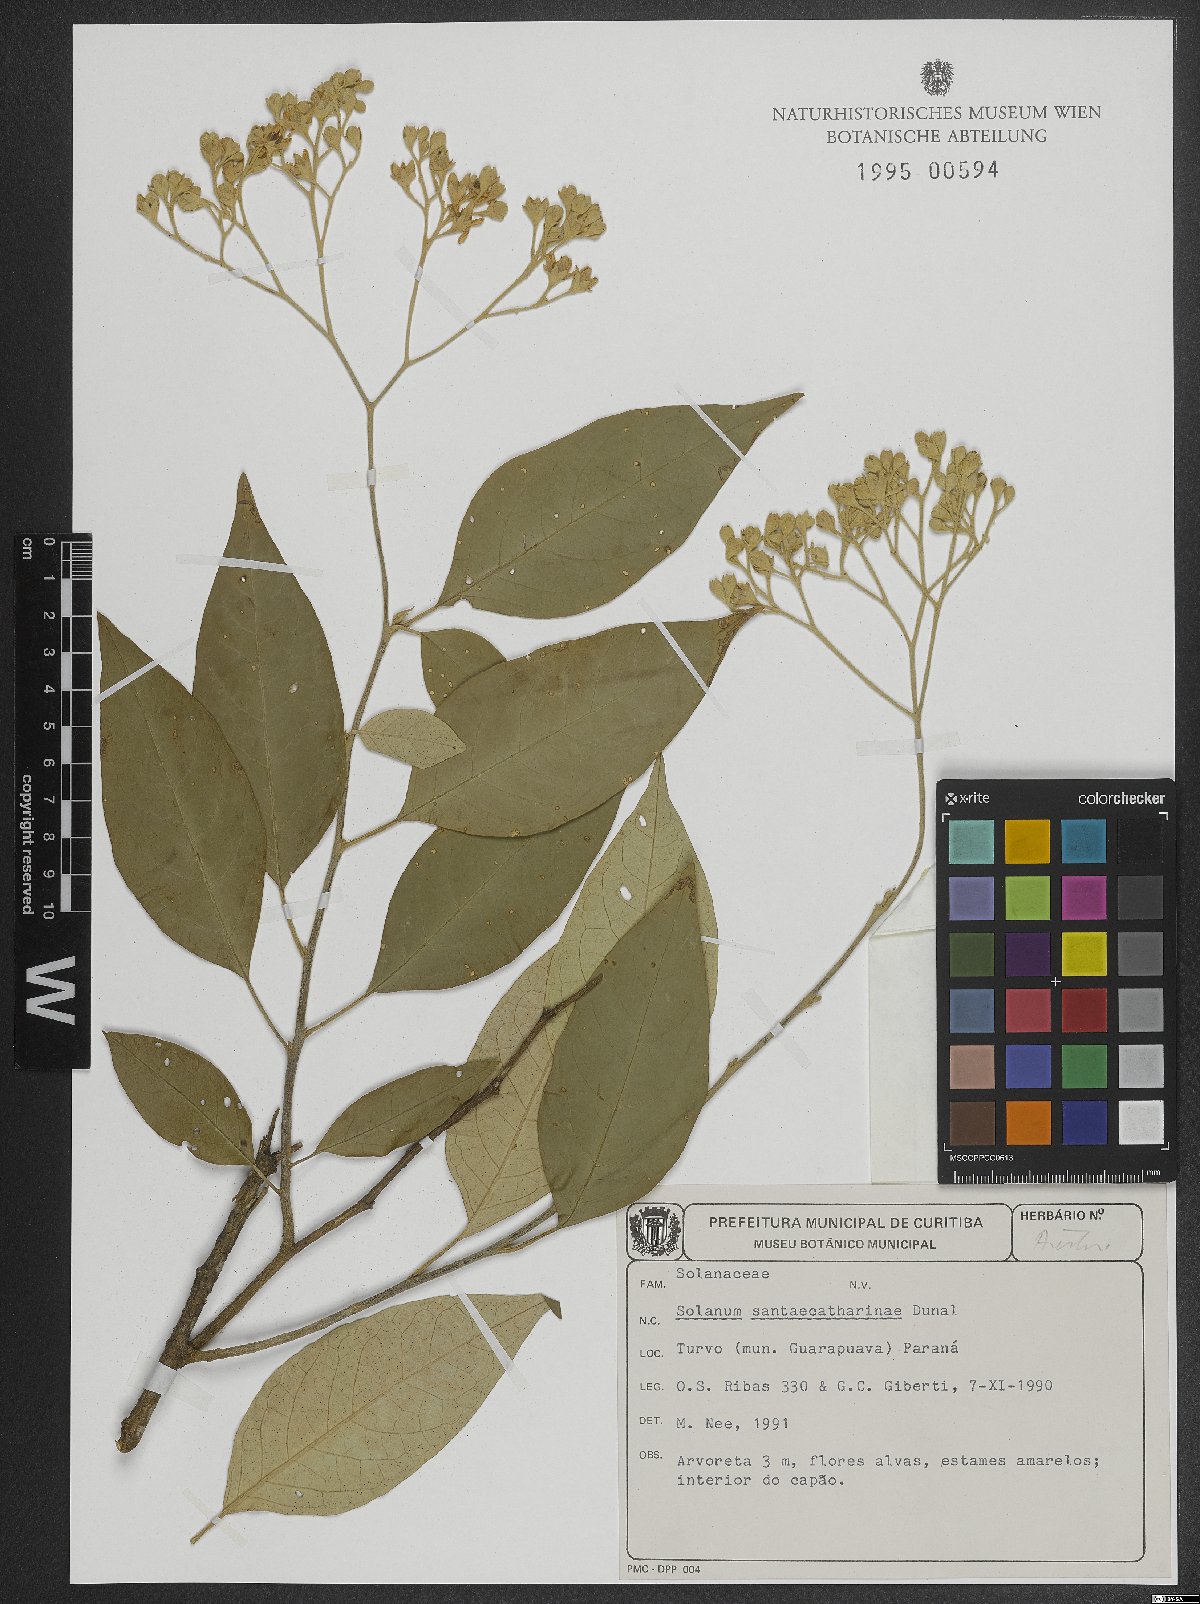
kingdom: Plantae
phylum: Tracheophyta
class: Magnoliopsida
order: Solanales
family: Solanaceae
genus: Solanum
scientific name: Solanum sanctae-catharinae
